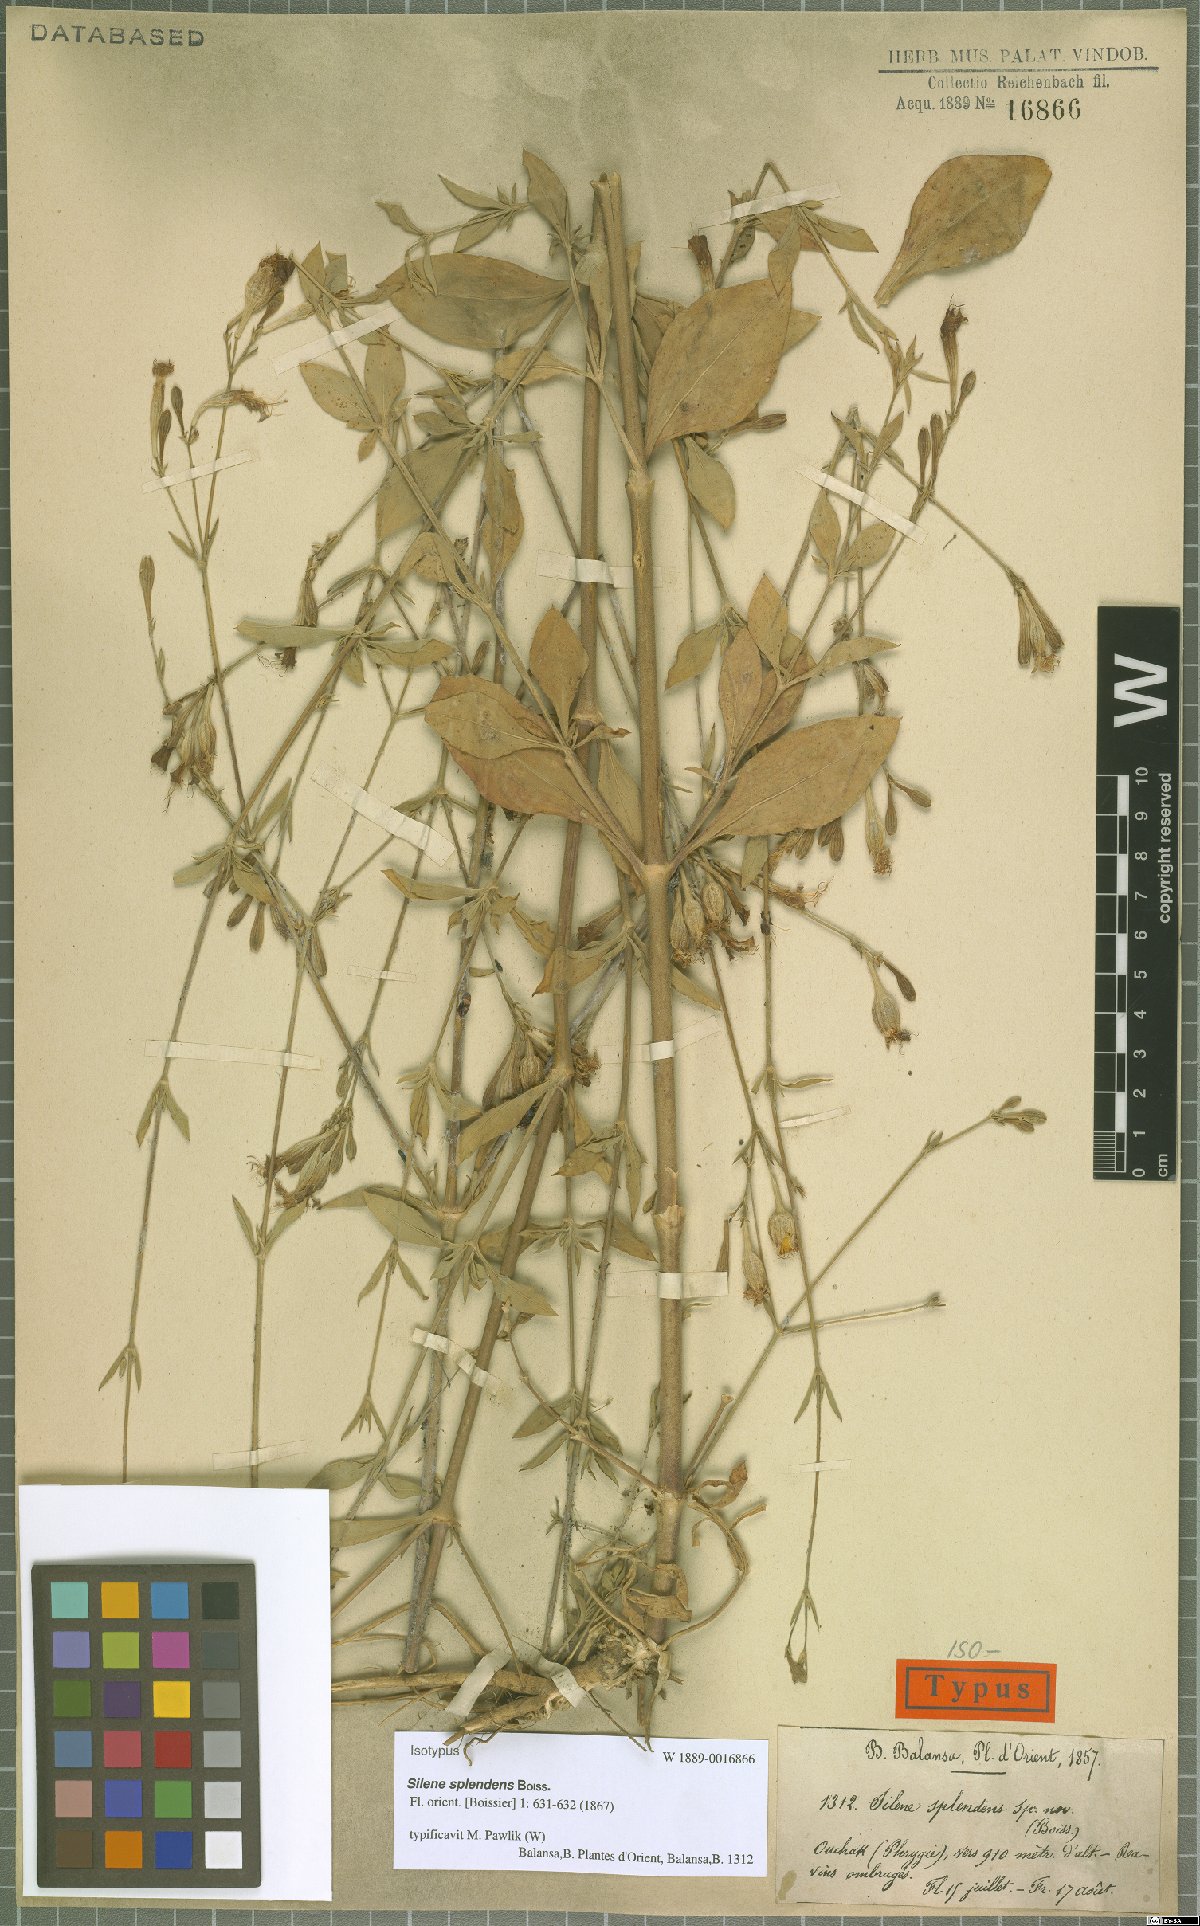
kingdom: Plantae
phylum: Tracheophyta
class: Magnoliopsida
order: Caryophyllales
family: Caryophyllaceae
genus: Silene
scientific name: Silene splendens
